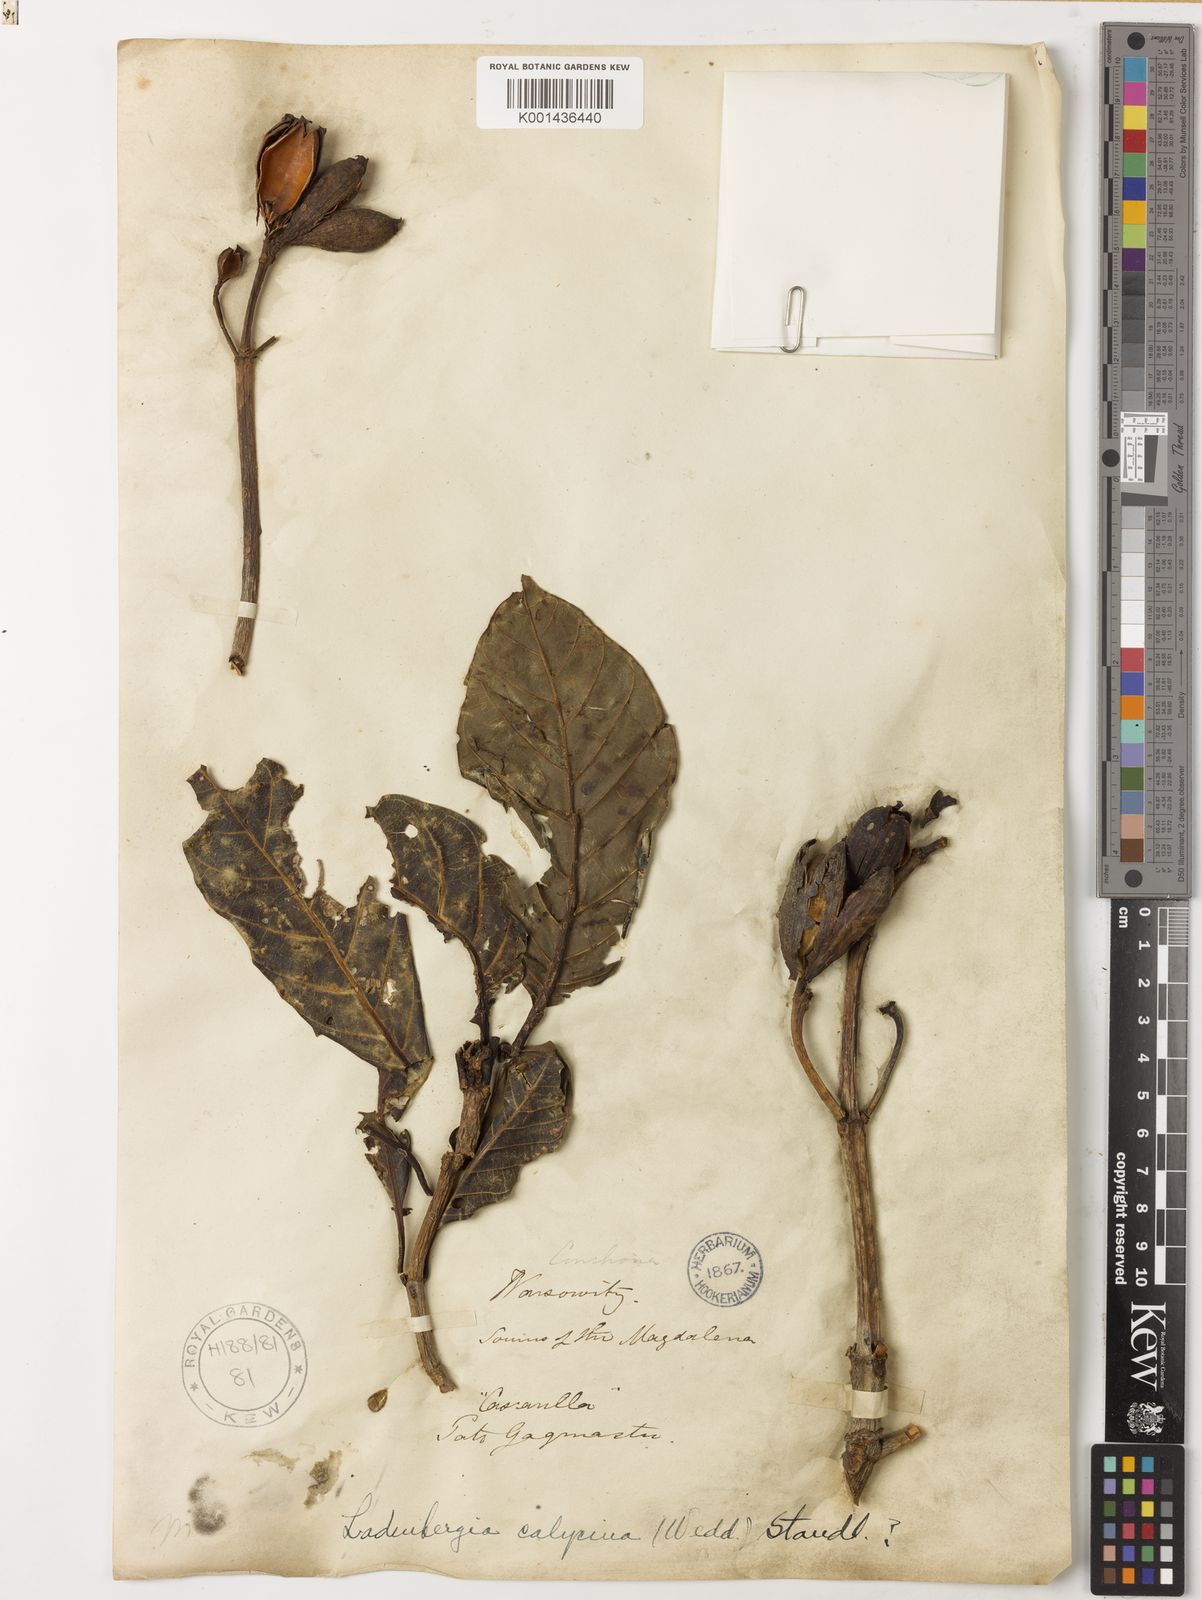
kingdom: Plantae
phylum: Tracheophyta
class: Magnoliopsida
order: Gentianales
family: Rubiaceae
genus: Ladenbergia
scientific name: Ladenbergia moritziana
